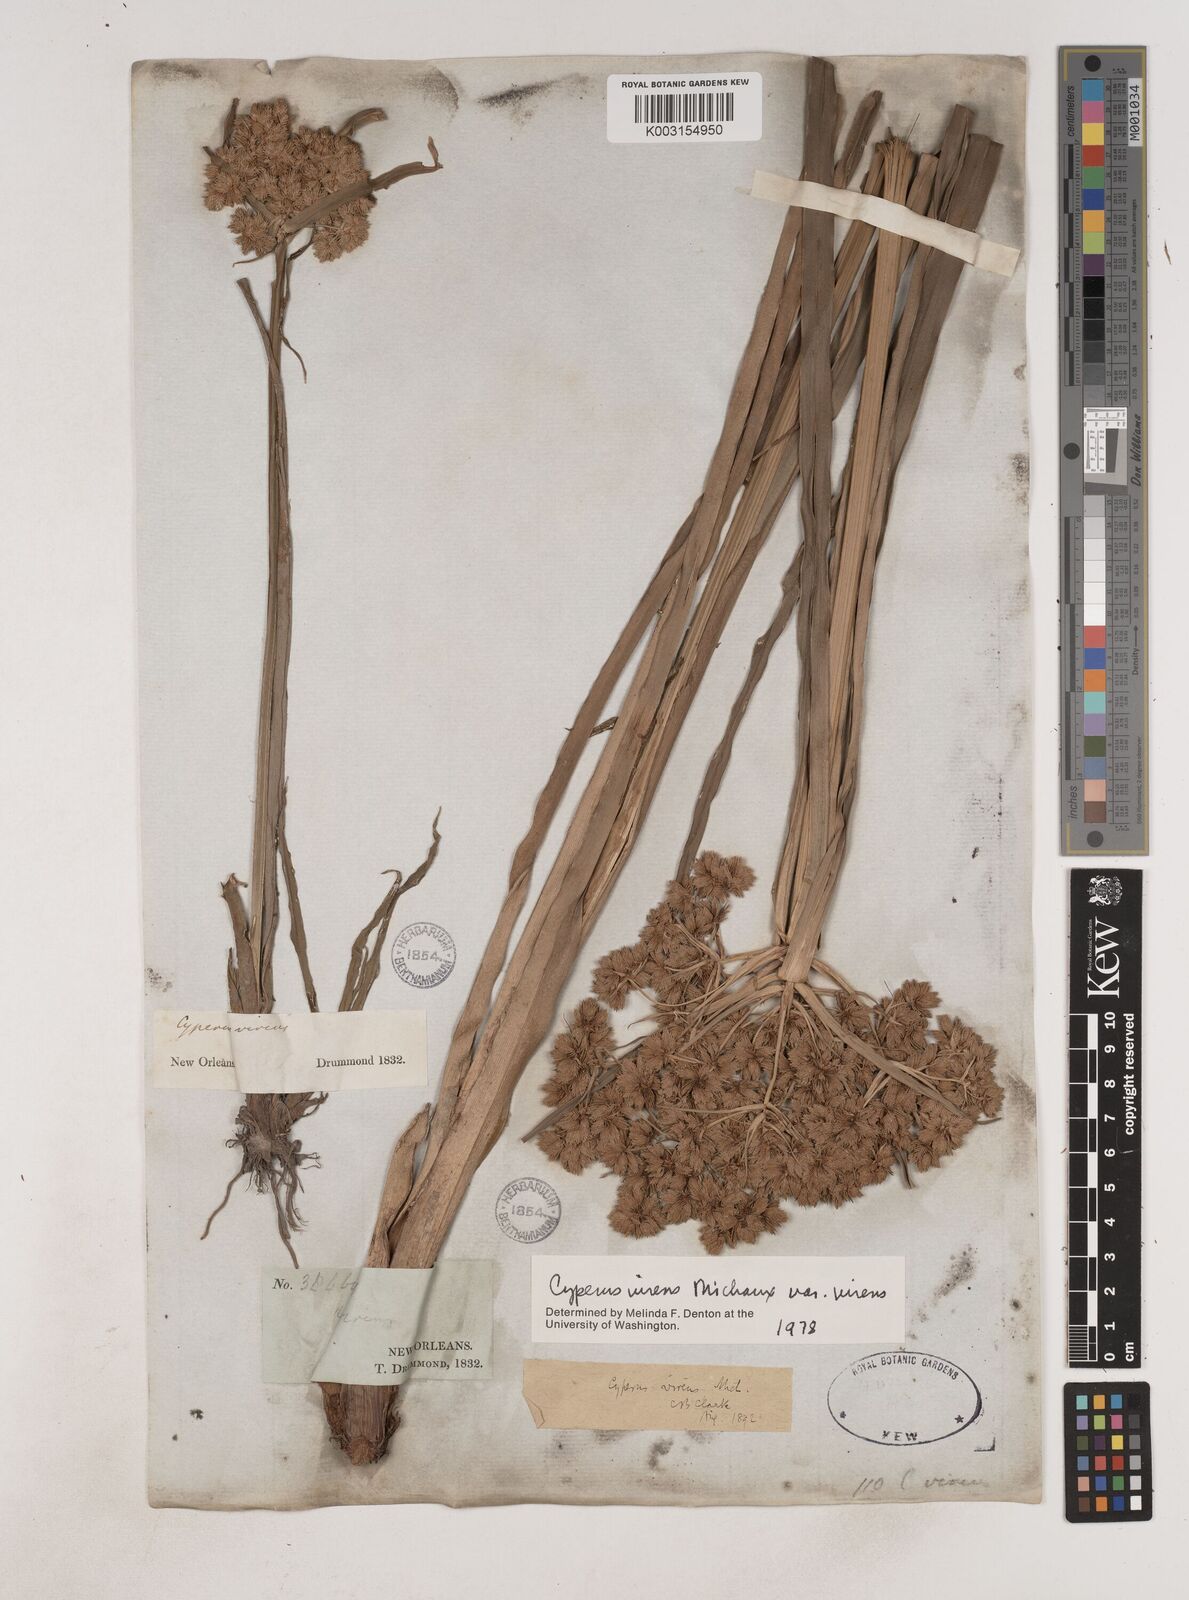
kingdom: Plantae
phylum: Tracheophyta
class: Liliopsida
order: Poales
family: Cyperaceae
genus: Cyperus
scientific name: Cyperus virens
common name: Green flatsedge
